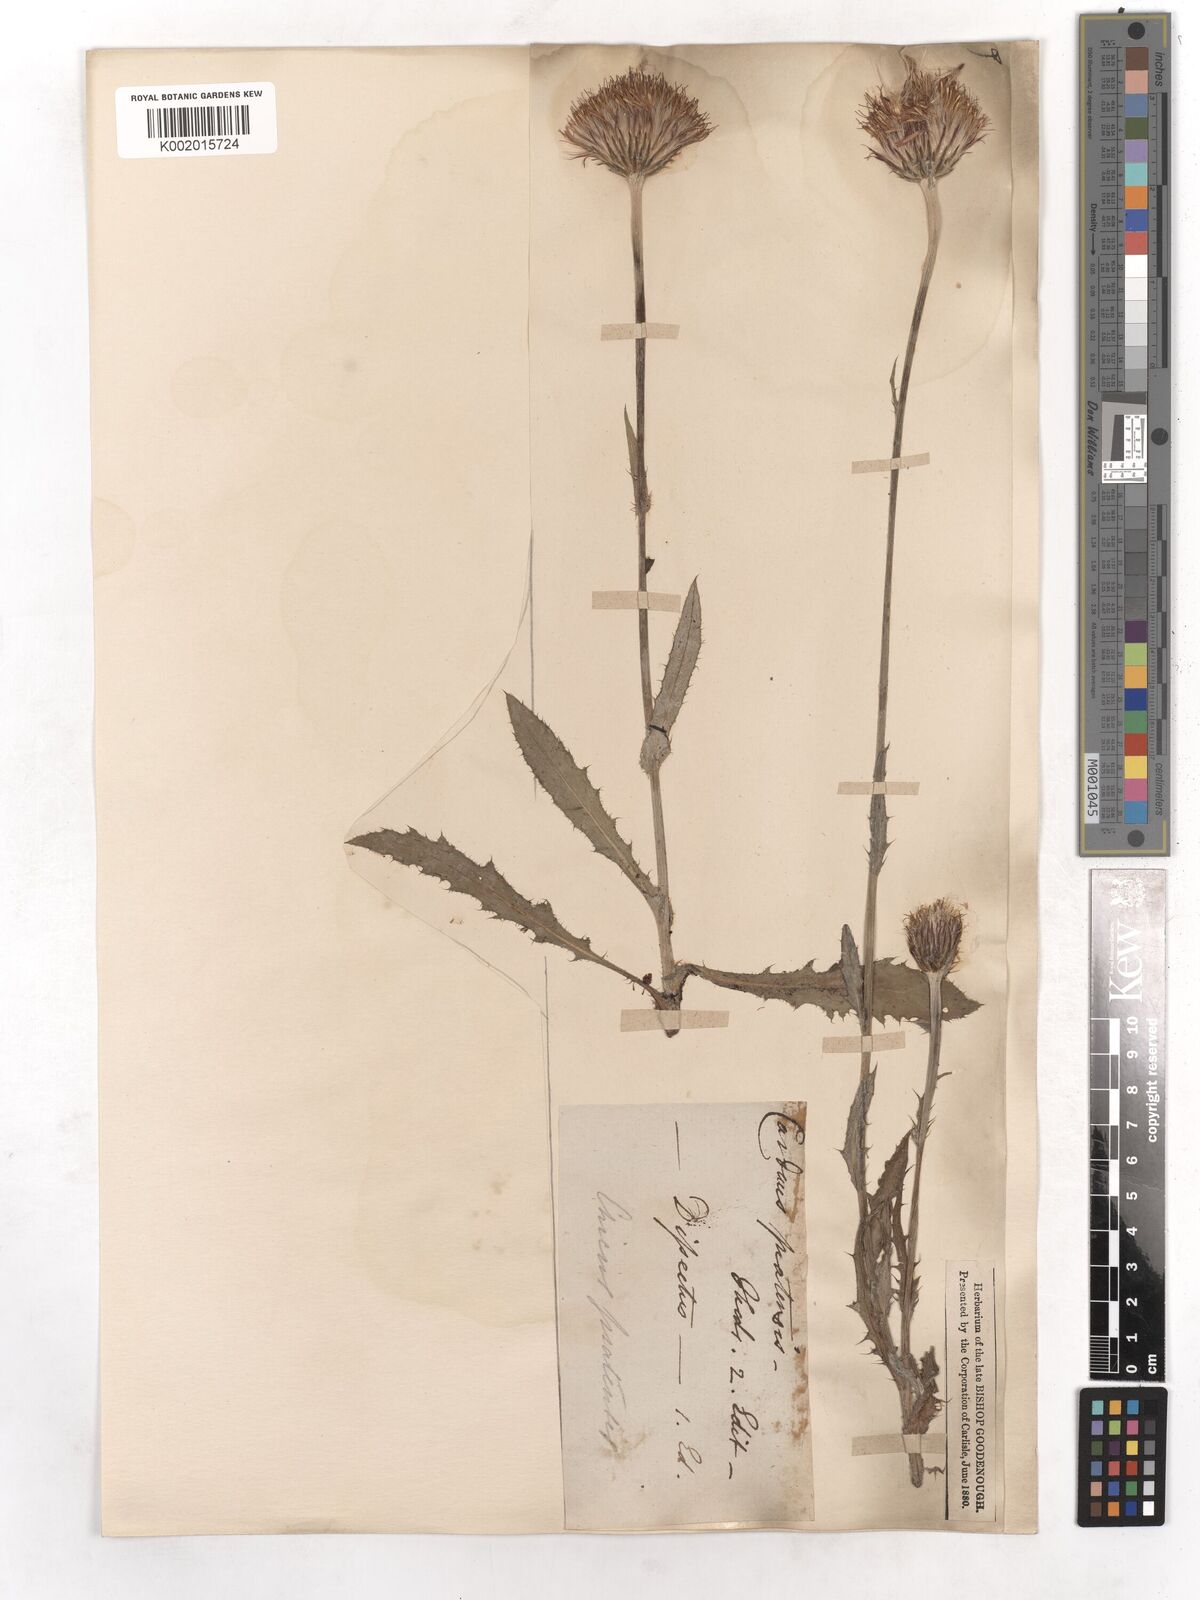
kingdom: Plantae
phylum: Tracheophyta
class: Magnoliopsida
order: Asterales
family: Asteraceae
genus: Cirsium
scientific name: Cirsium dissectum
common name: Meadow thistle
